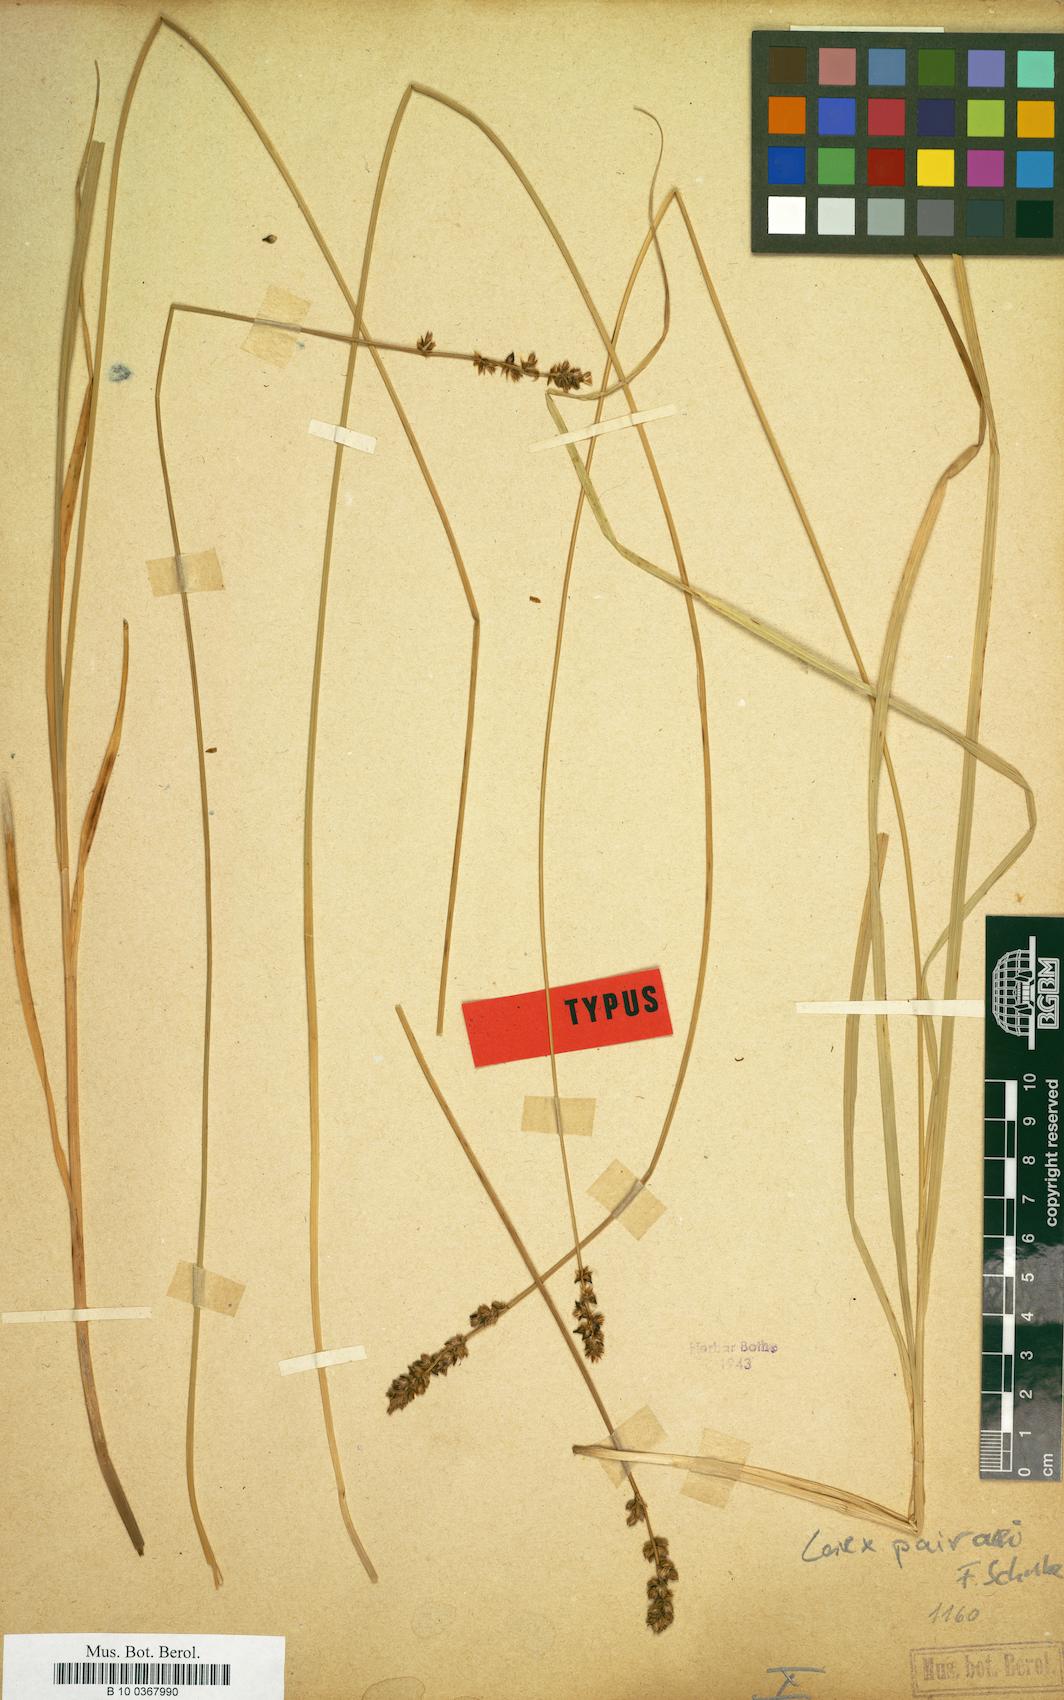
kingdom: Plantae
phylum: Tracheophyta
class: Liliopsida
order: Poales
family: Cyperaceae
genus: Carex
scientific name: Carex pairae
